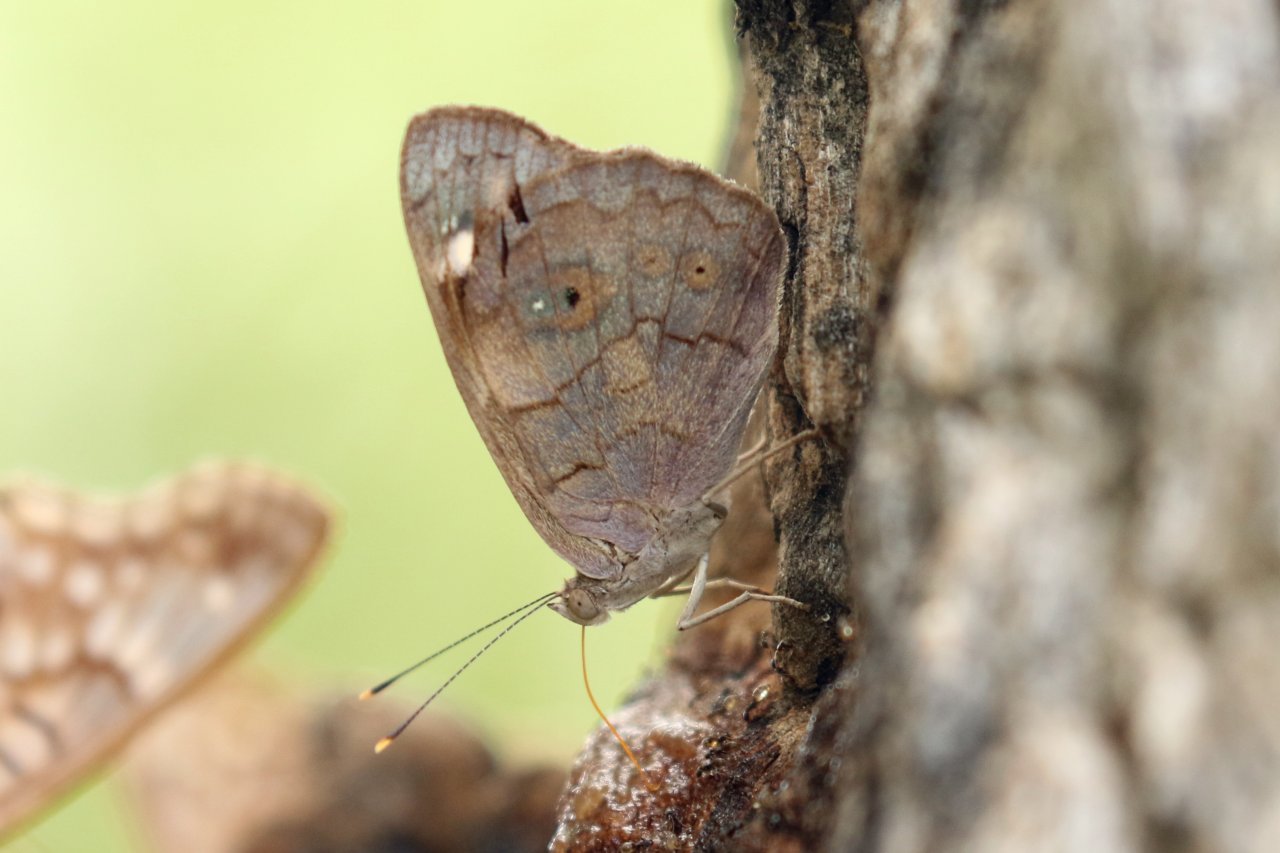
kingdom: Animalia
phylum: Arthropoda
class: Insecta
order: Lepidoptera
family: Nymphalidae
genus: Eunica
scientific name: Eunica monima
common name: Dingy Purplewing
